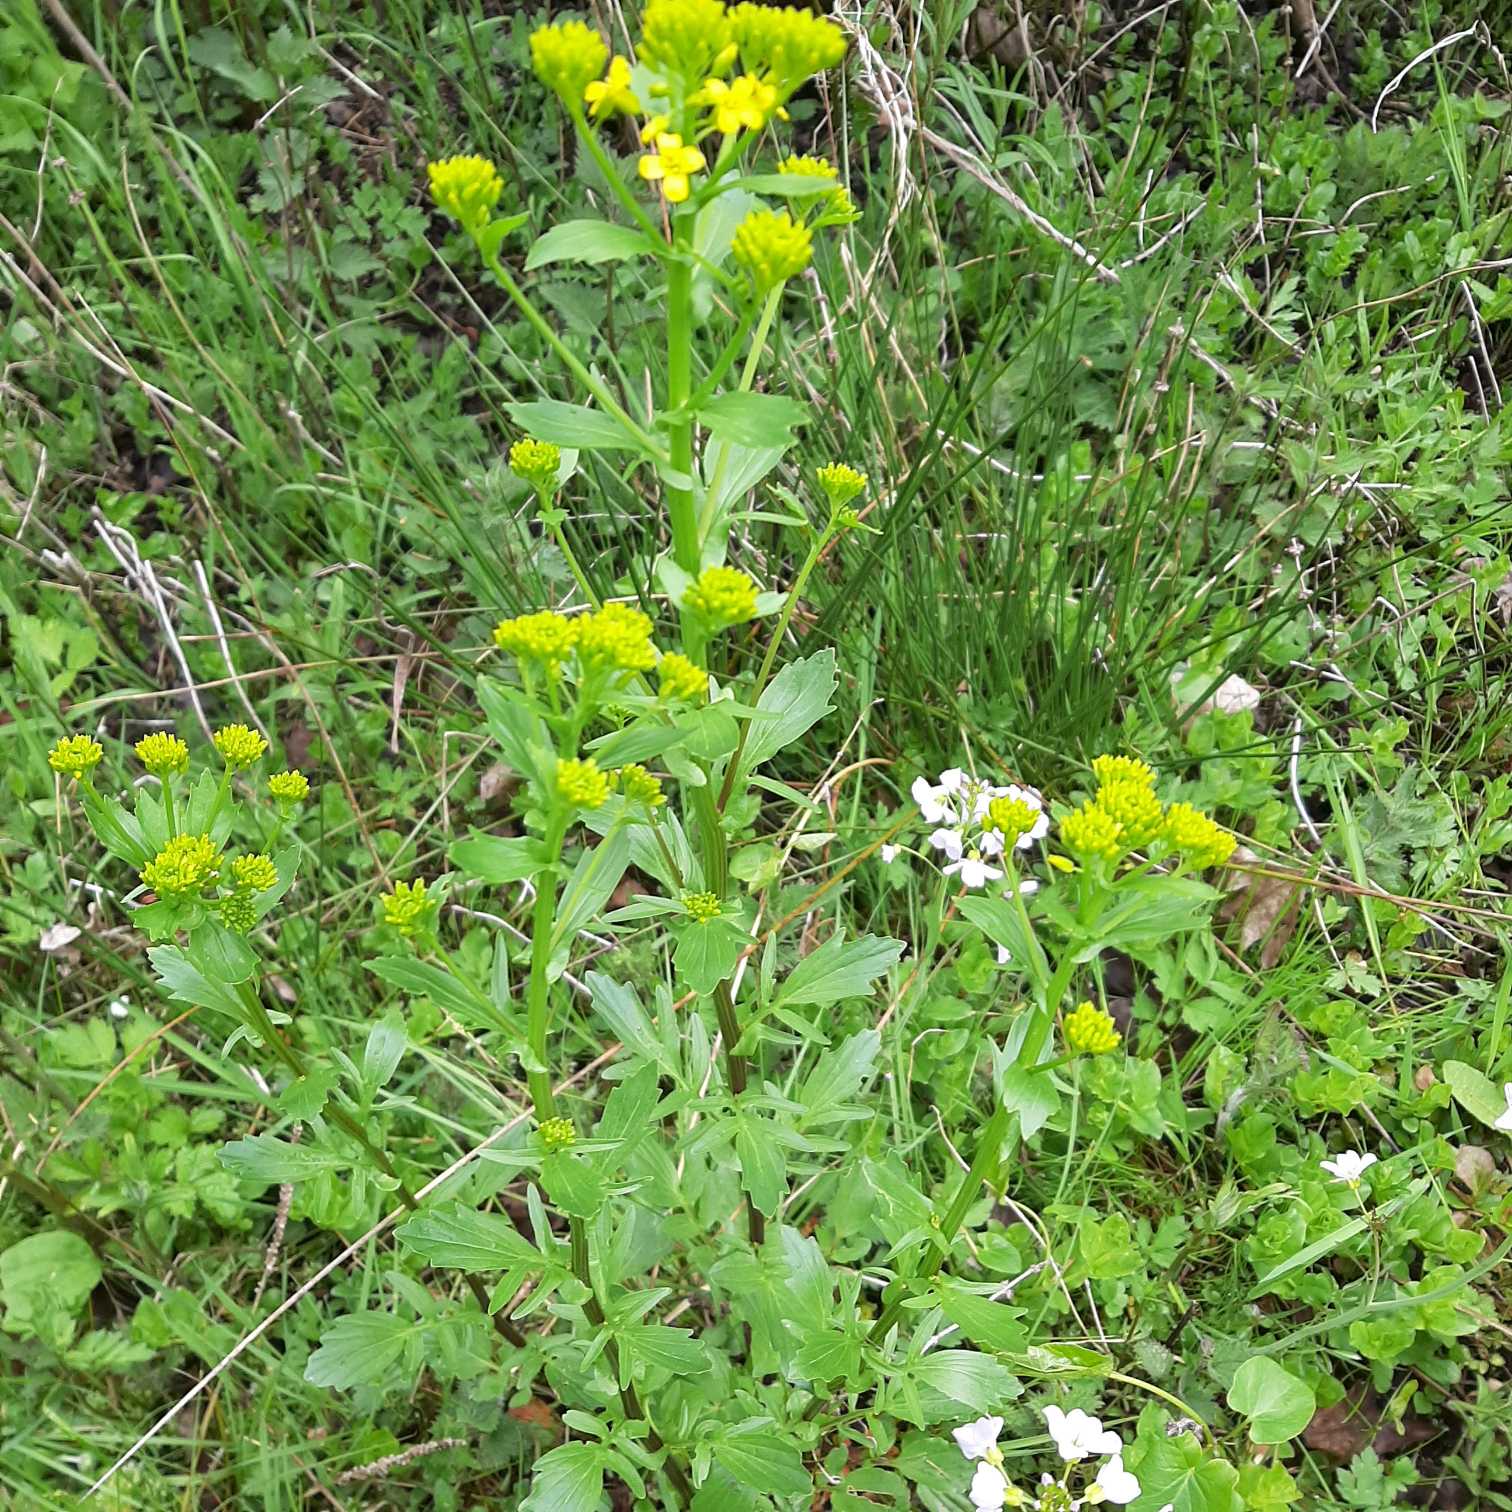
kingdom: Plantae
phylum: Tracheophyta
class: Magnoliopsida
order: Brassicales
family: Brassicaceae
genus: Barbarea
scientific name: Barbarea vulgaris
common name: Almindelig vinterkarse
